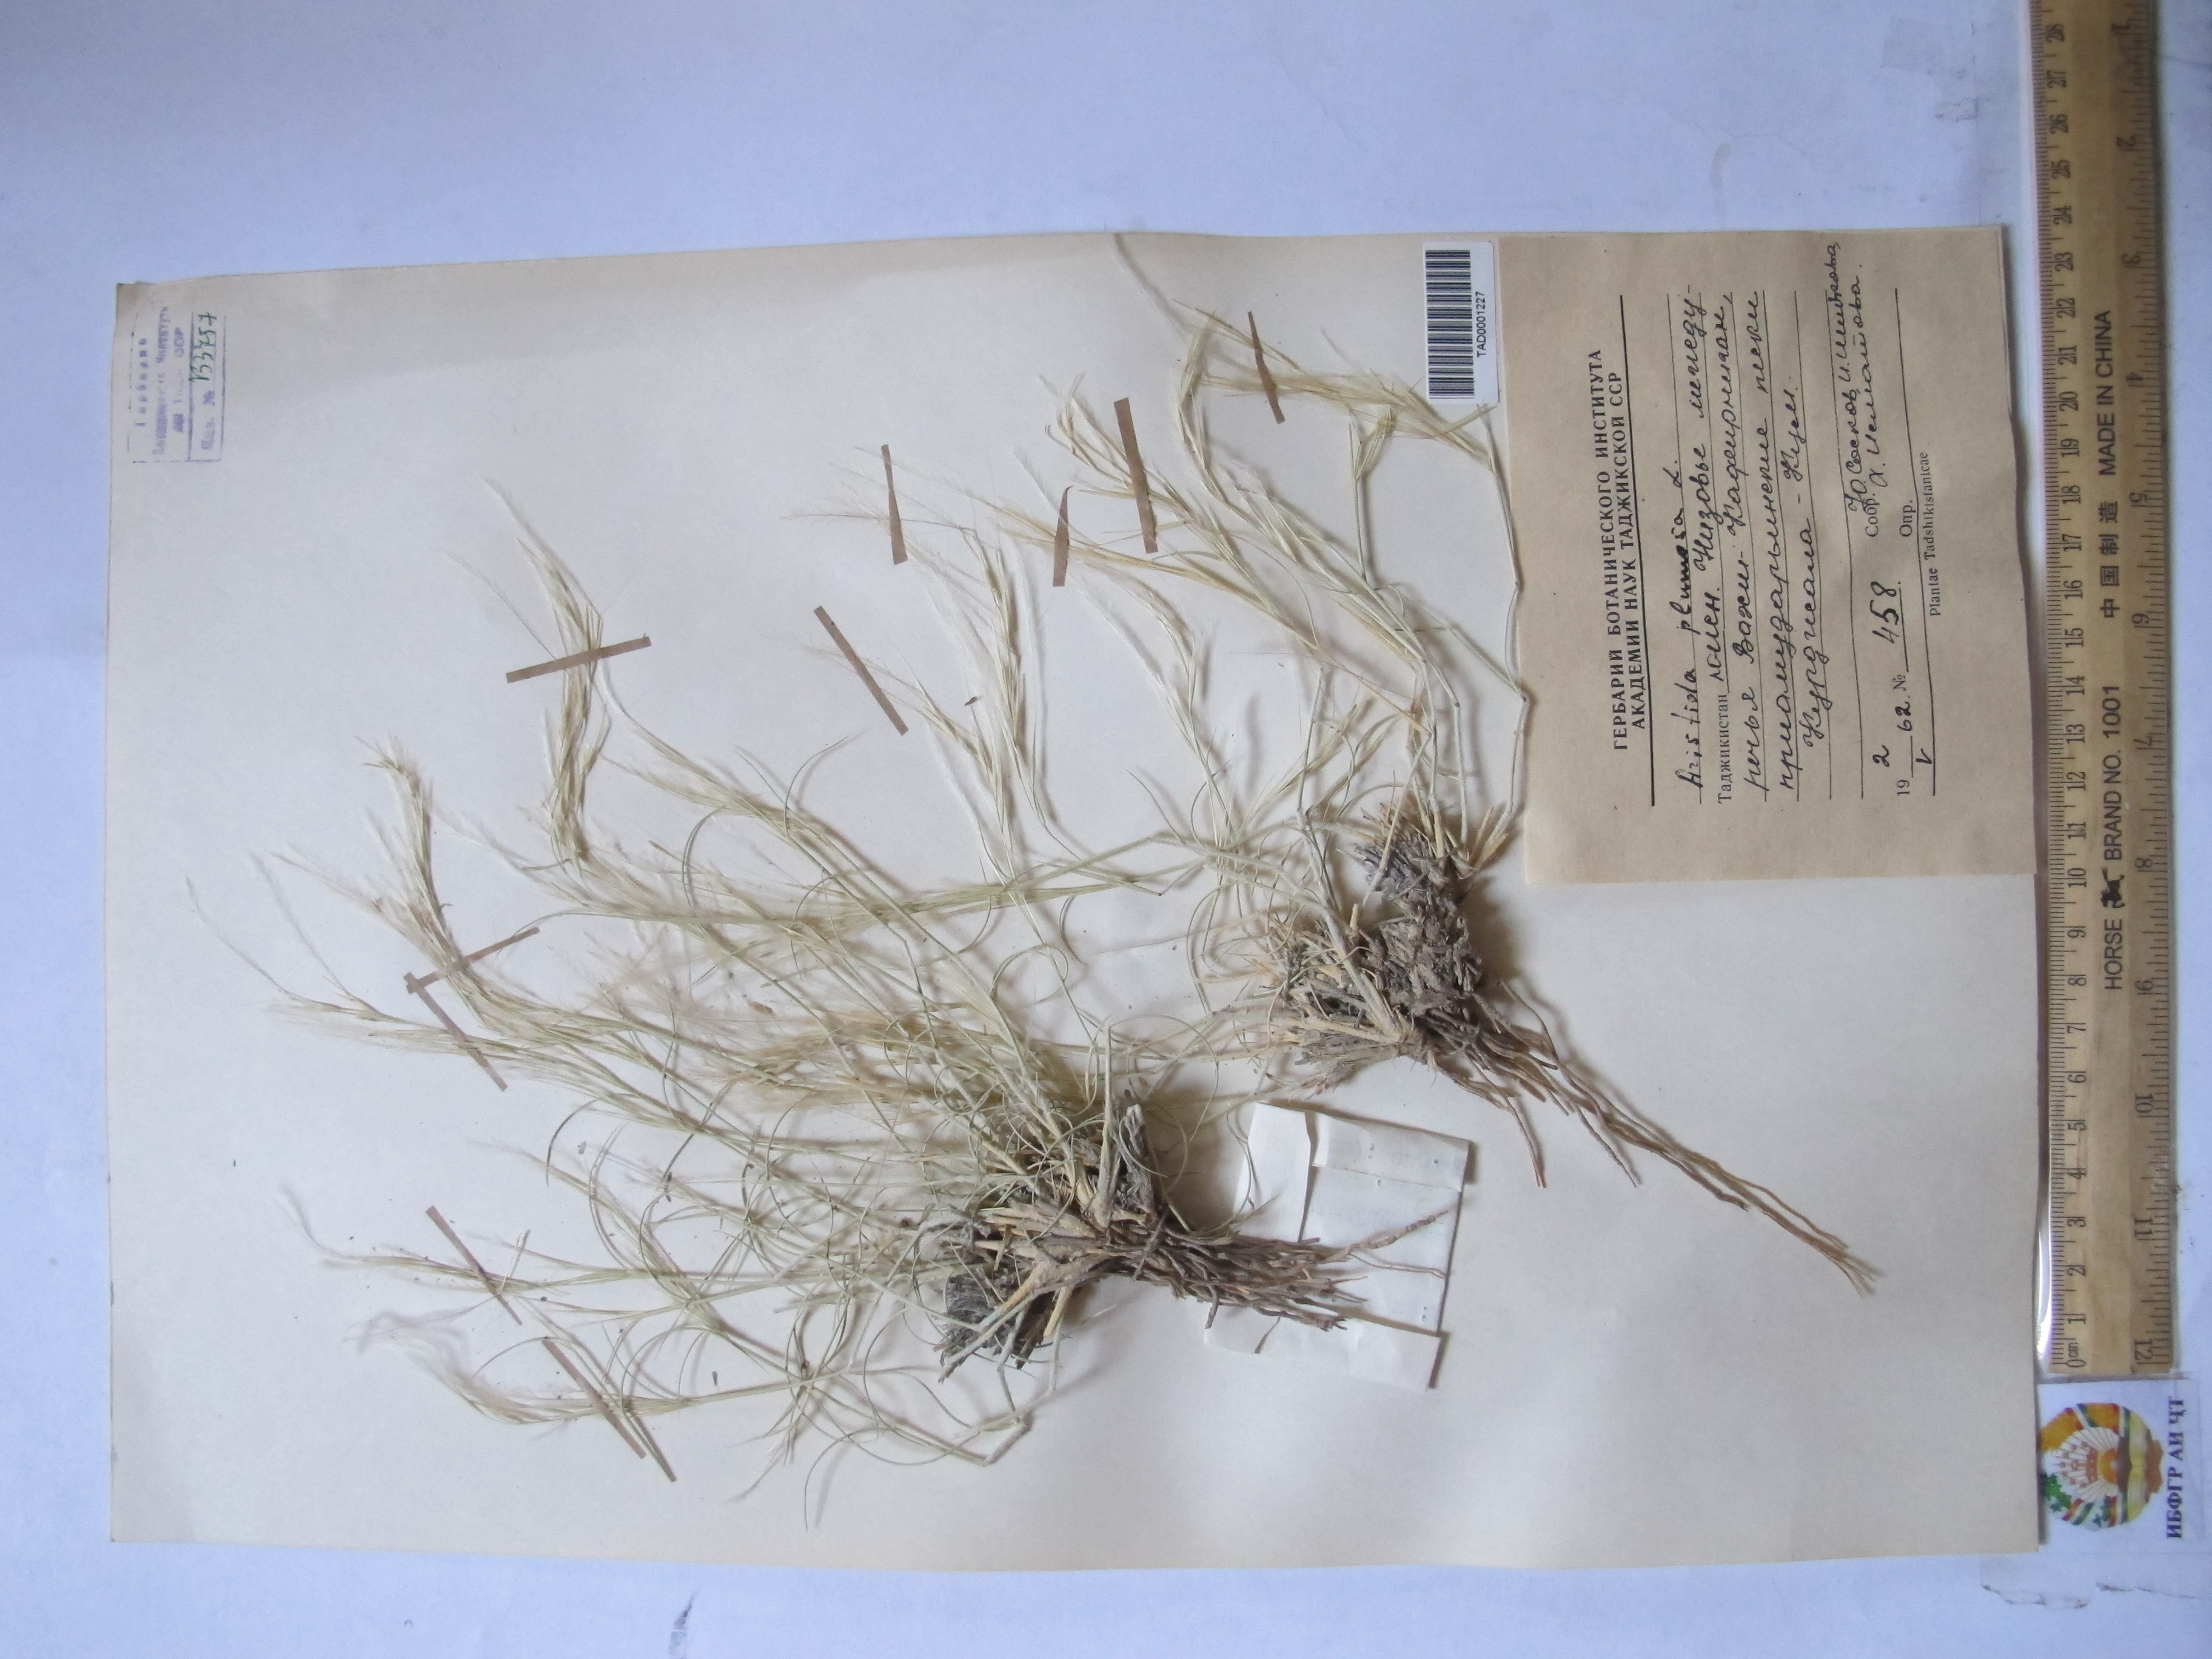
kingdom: Plantae
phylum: Tracheophyta
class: Liliopsida
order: Poales
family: Poaceae
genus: Stipagrostis
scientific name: Stipagrostis plumosa
